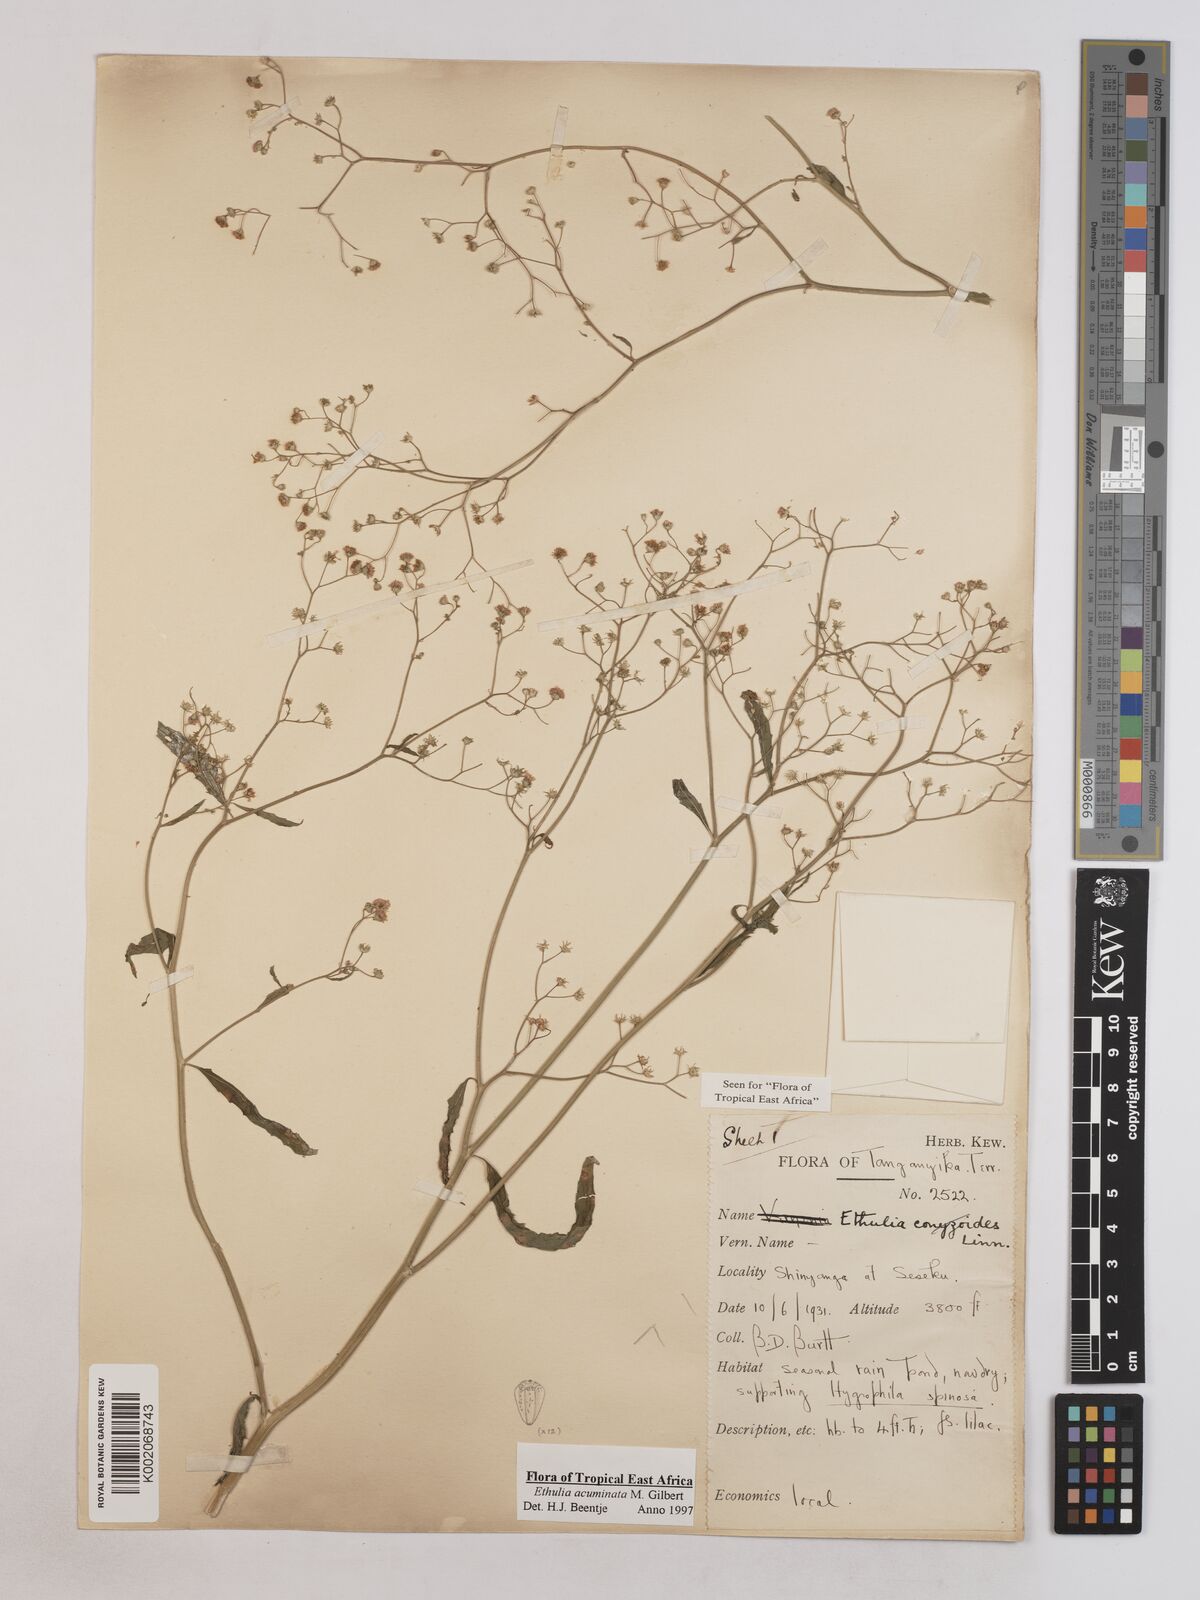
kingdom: Plantae
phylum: Tracheophyta
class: Magnoliopsida
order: Asterales
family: Asteraceae
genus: Ethulia
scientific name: Ethulia acuminata
